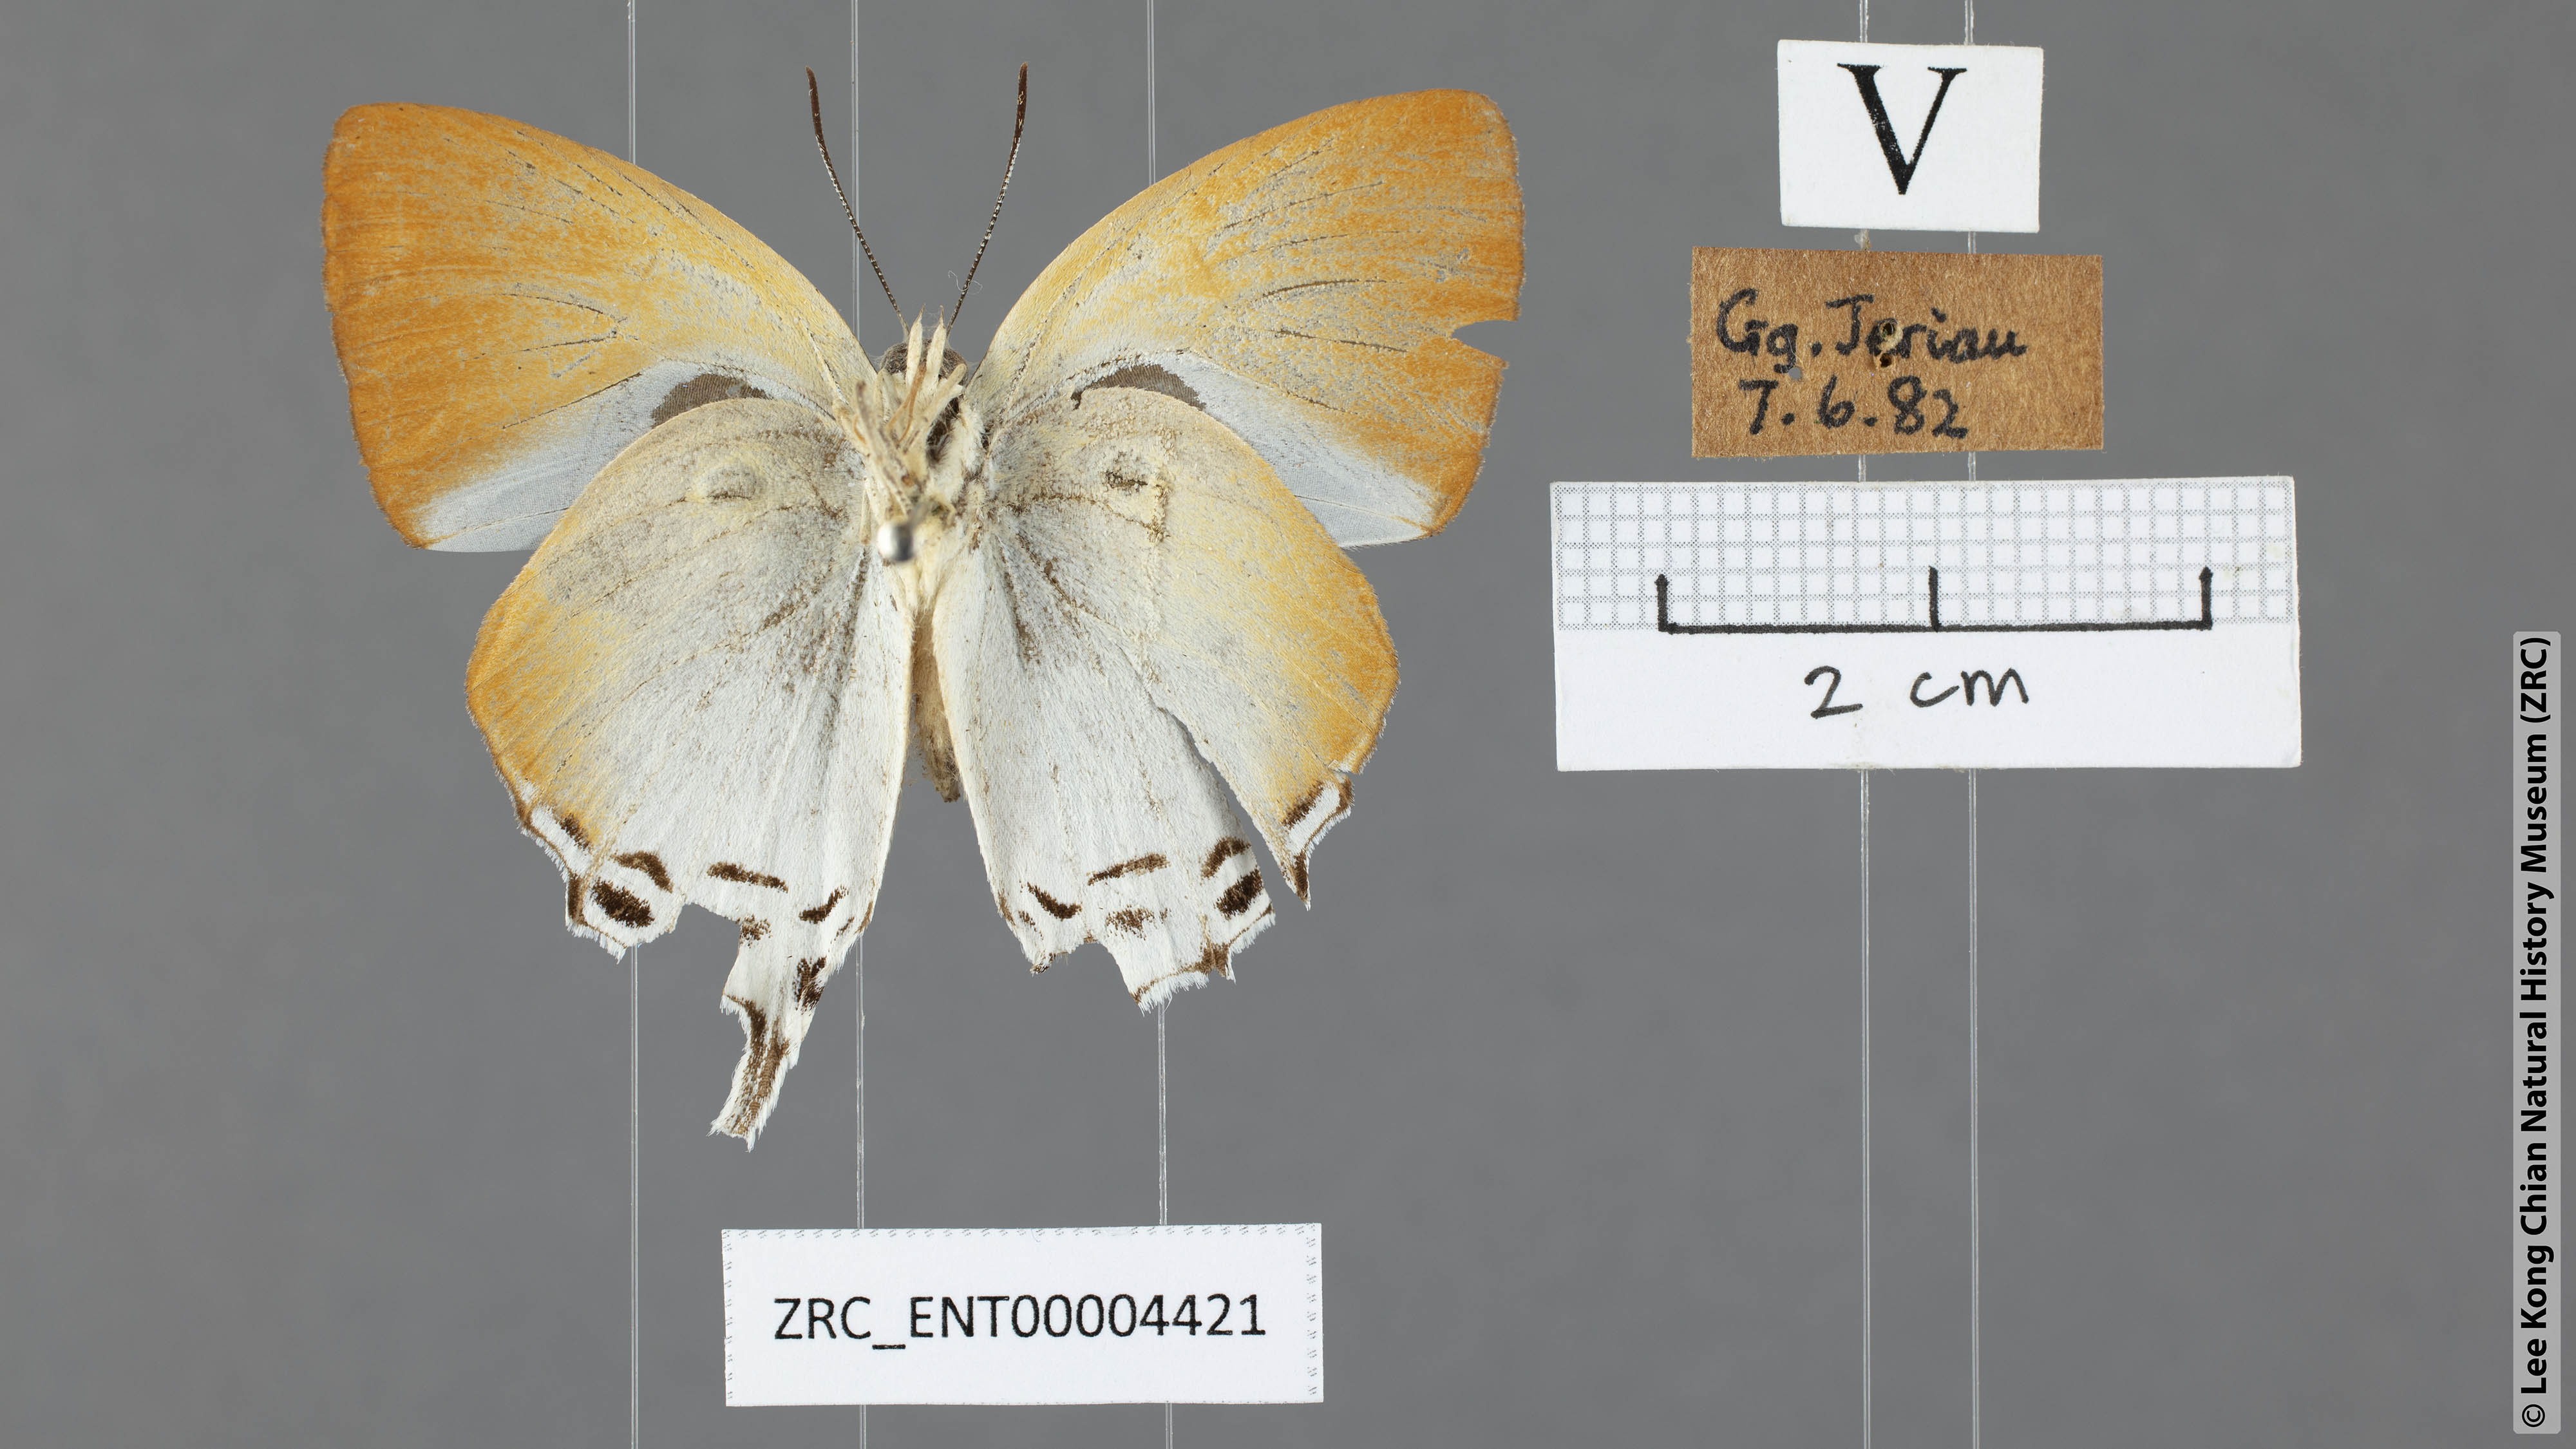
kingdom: Animalia
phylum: Arthropoda
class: Insecta
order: Lepidoptera
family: Lycaenidae
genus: Neocheritra
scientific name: Neocheritra amrita
